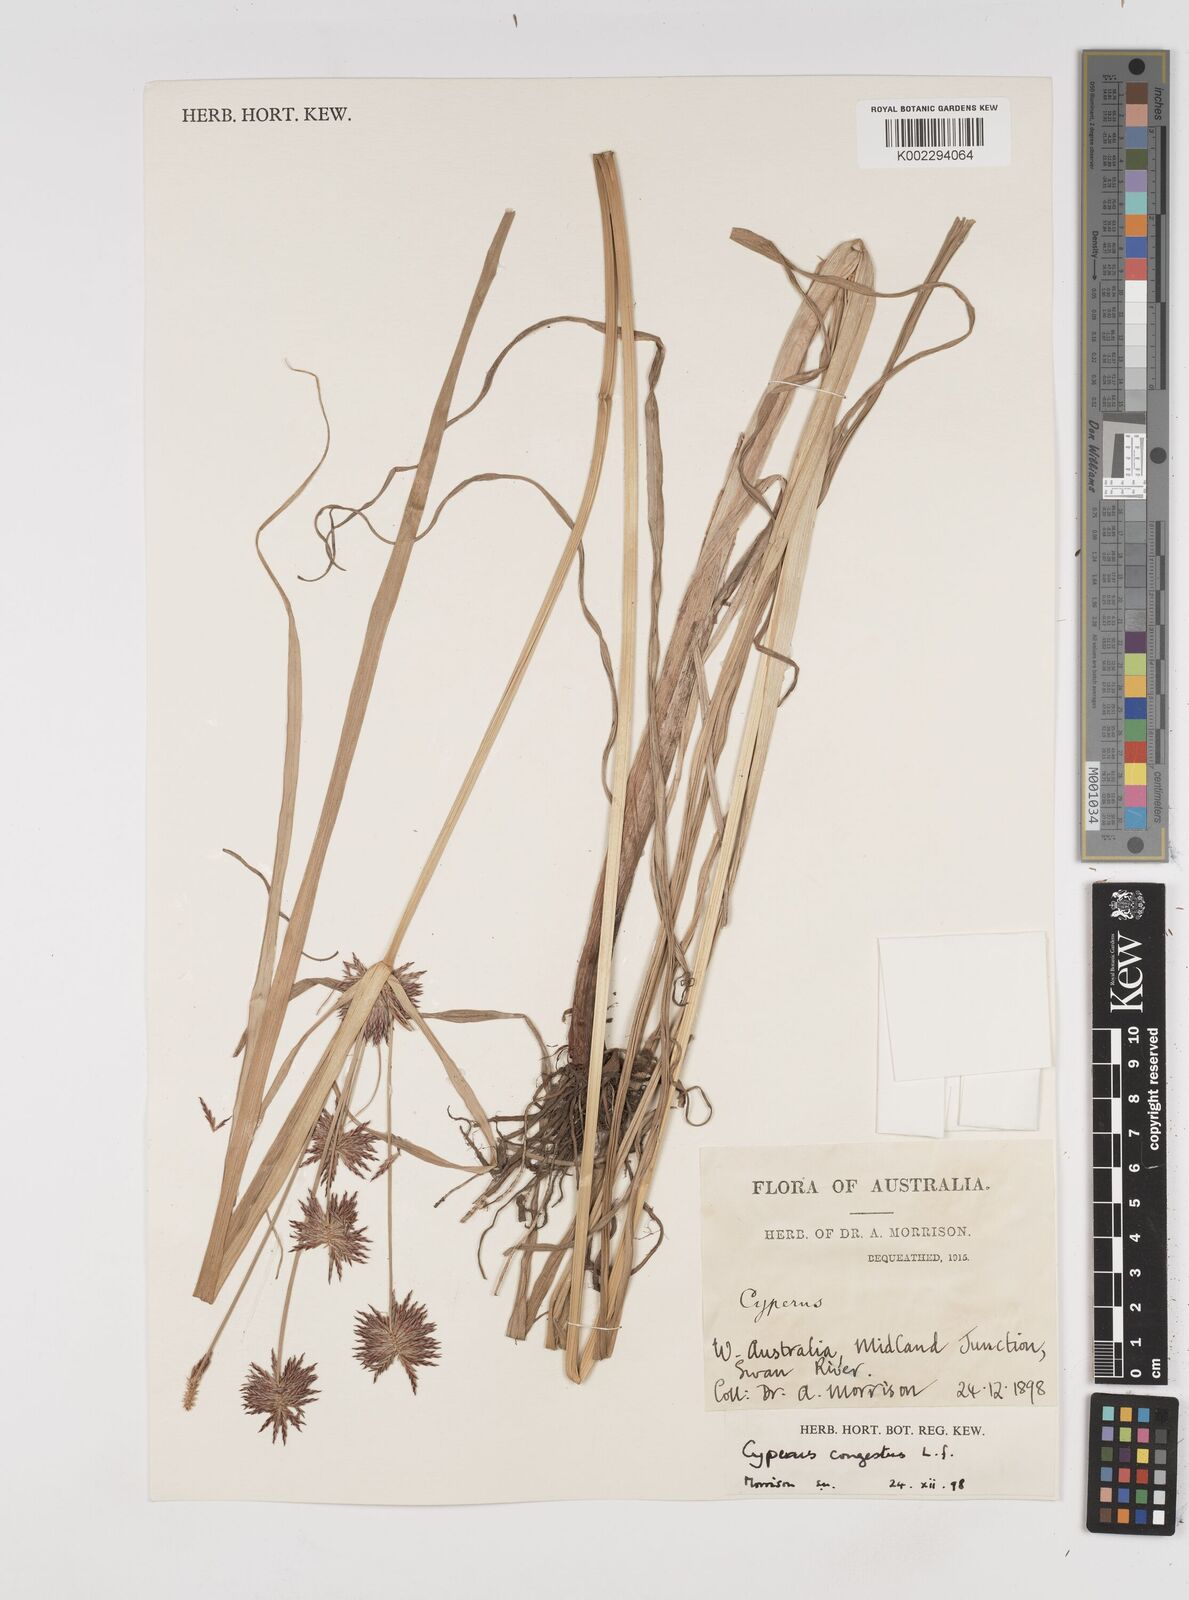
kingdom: Plantae
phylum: Tracheophyta
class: Liliopsida
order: Poales
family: Cyperaceae
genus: Cyperus
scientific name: Cyperus congestus
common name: Dense flat sedge
